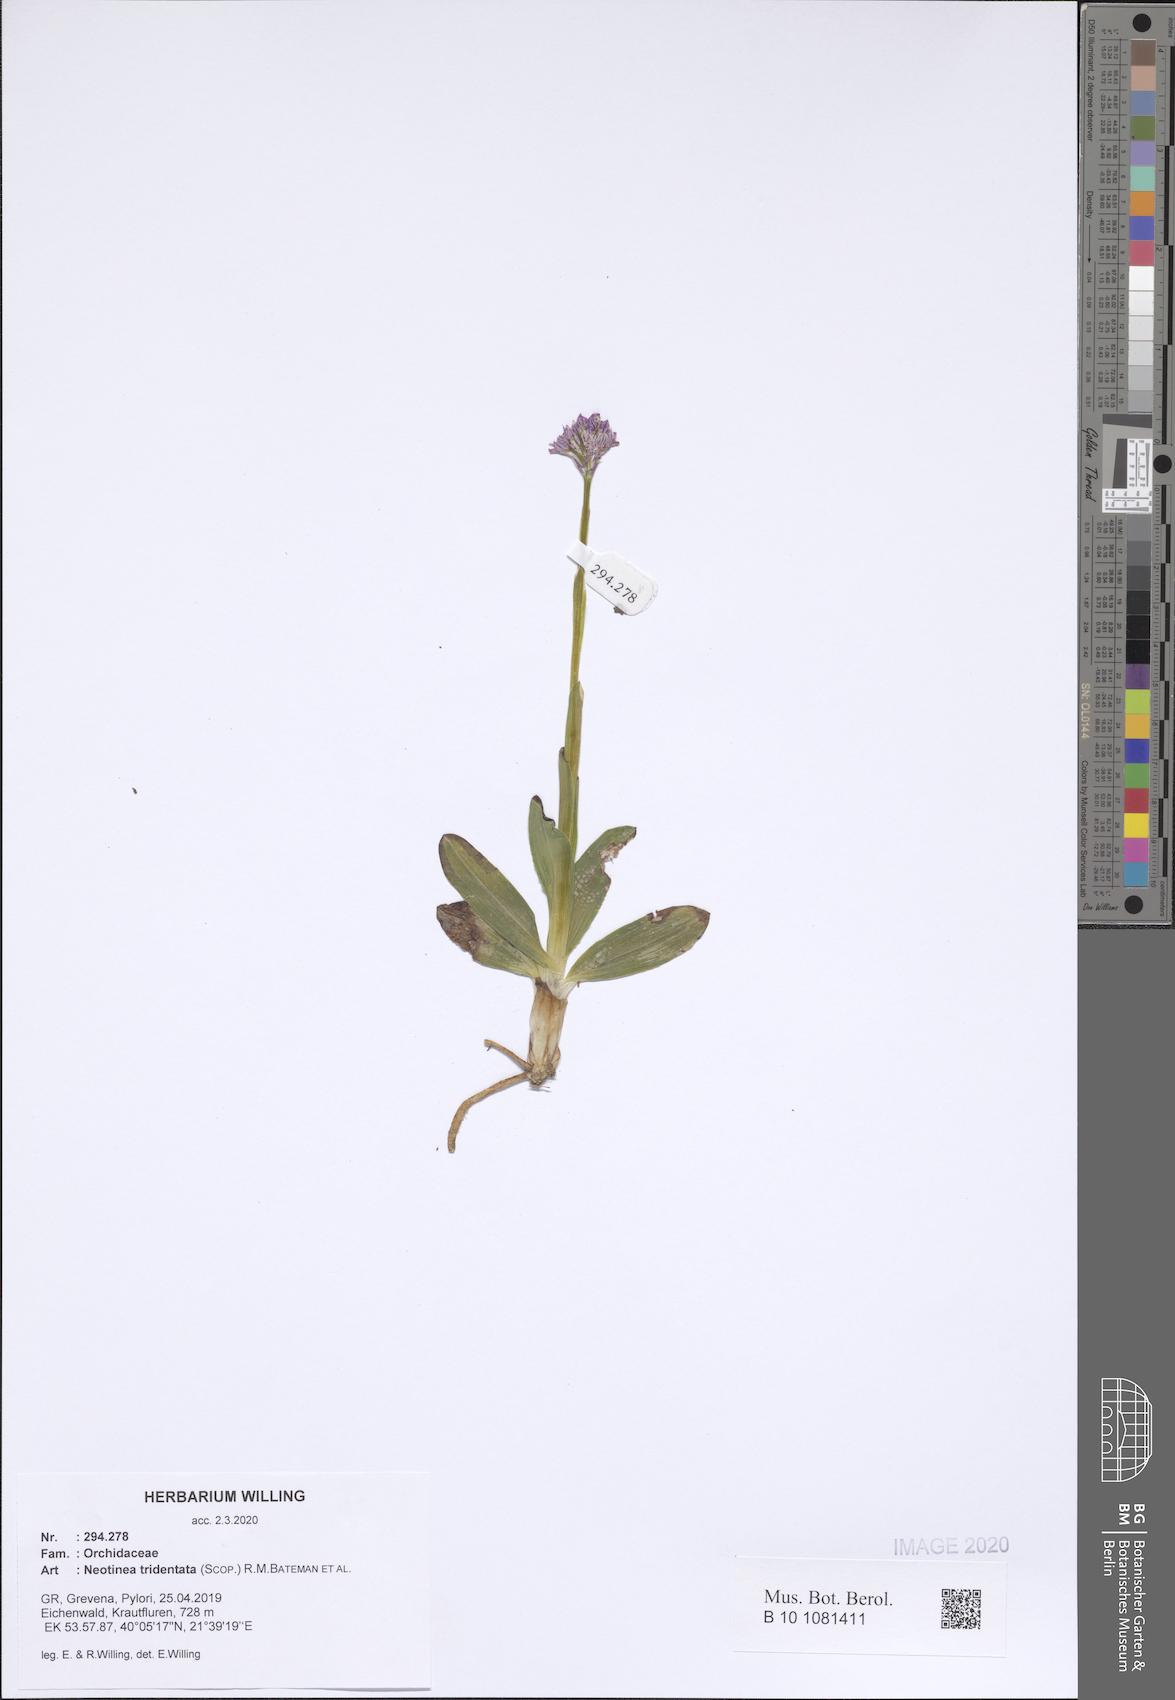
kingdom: Plantae
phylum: Tracheophyta
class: Liliopsida
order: Asparagales
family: Orchidaceae
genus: Neotinea
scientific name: Neotinea tridentata
